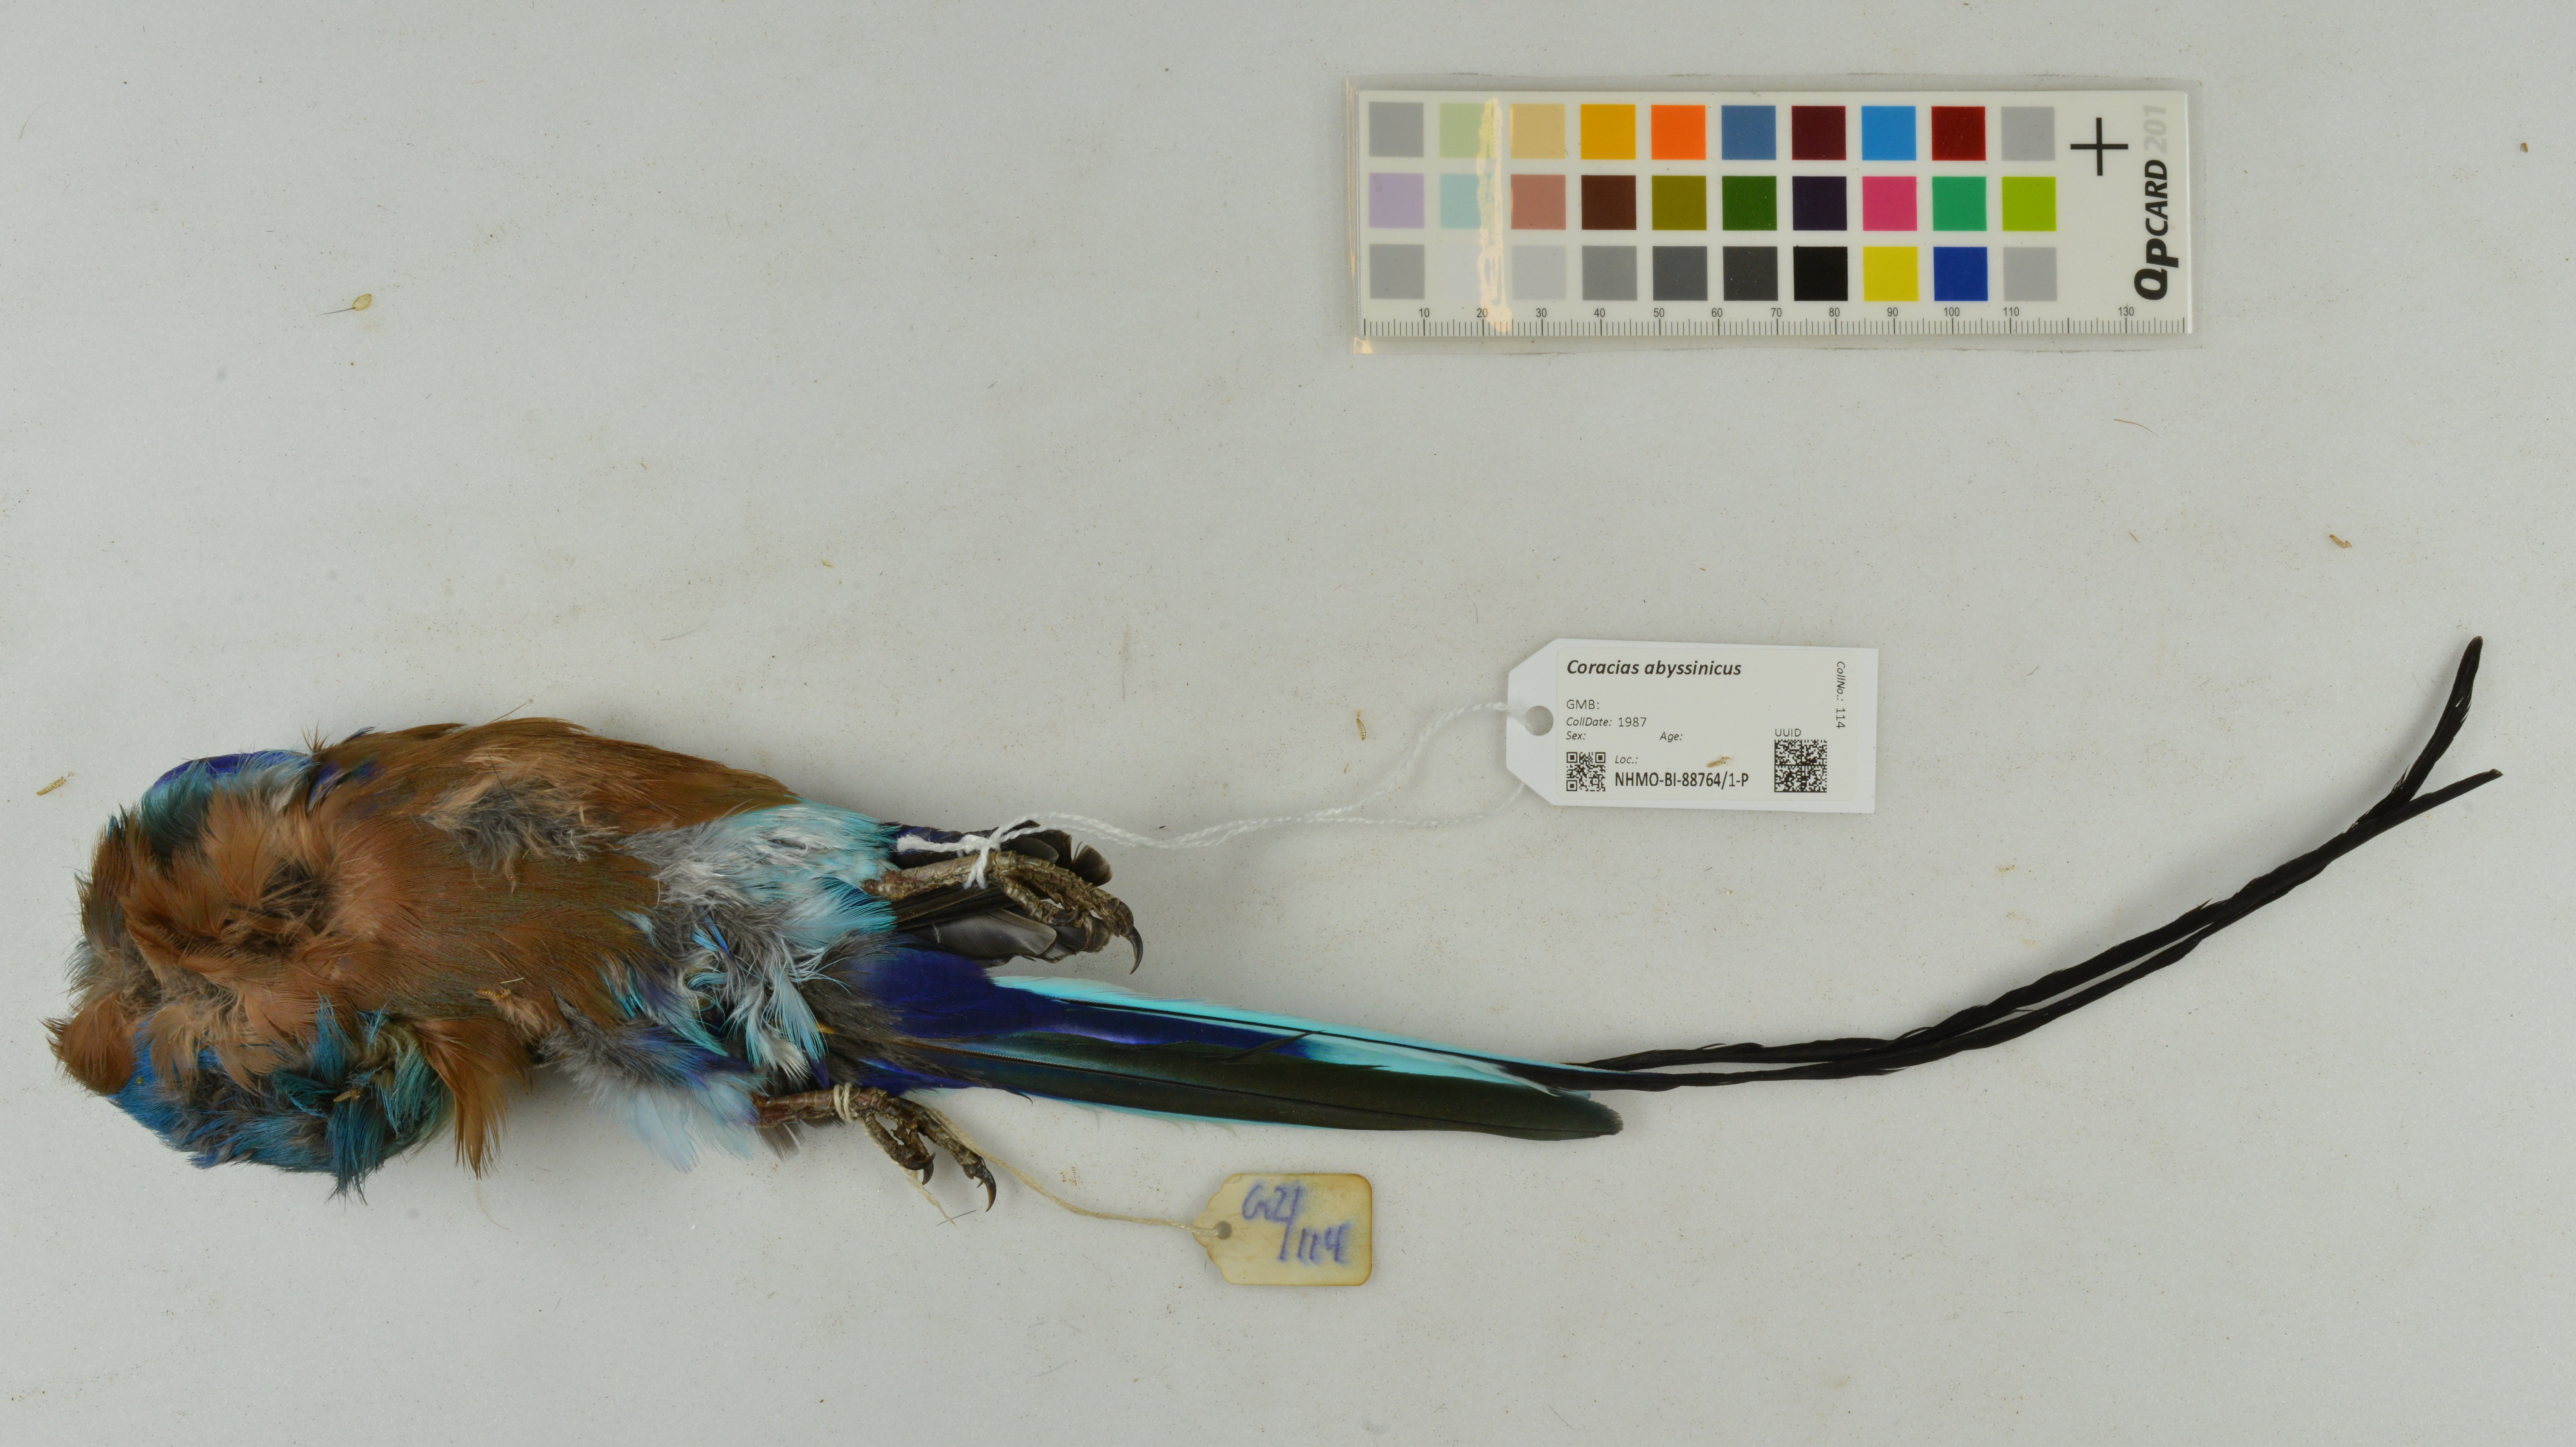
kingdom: Animalia
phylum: Chordata
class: Aves
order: Coraciiformes
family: Coraciidae
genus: Coracias
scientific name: Coracias abyssinicus
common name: Abyssinian roller
